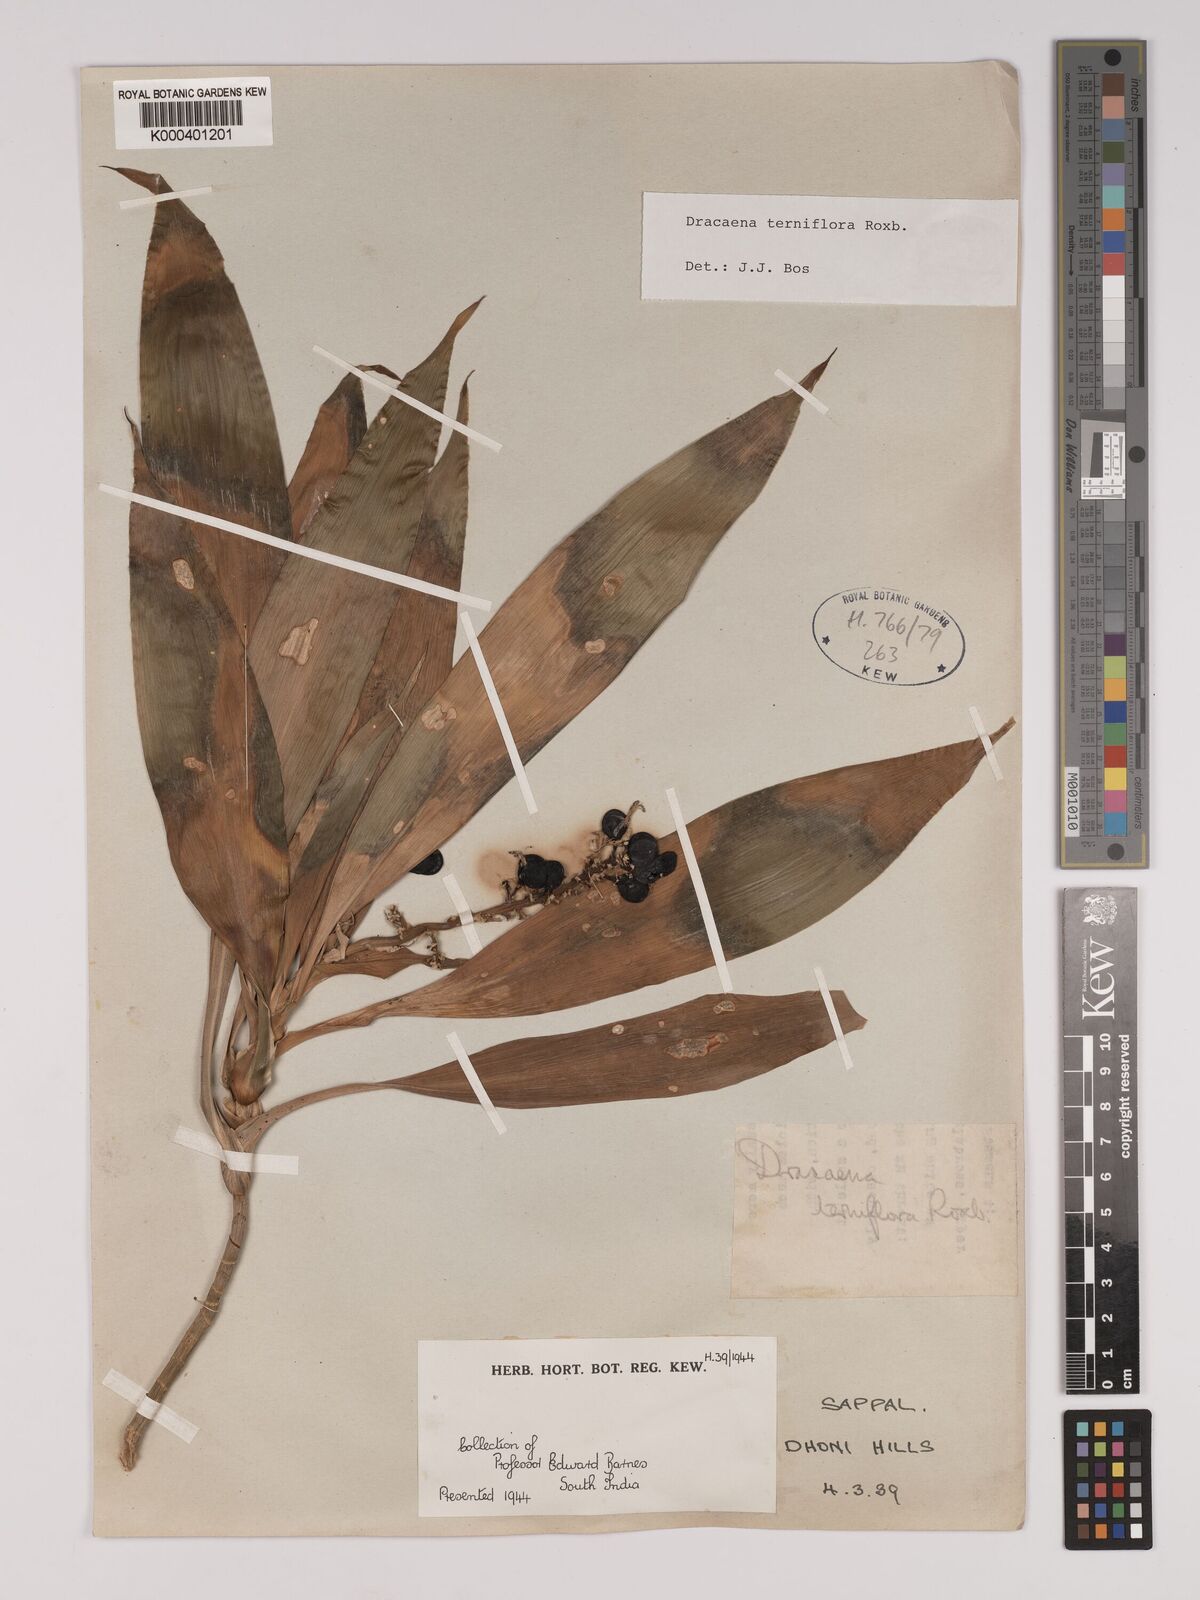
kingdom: Plantae
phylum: Tracheophyta
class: Liliopsida
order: Asparagales
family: Asparagaceae
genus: Dracaena
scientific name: Dracaena terniflora
